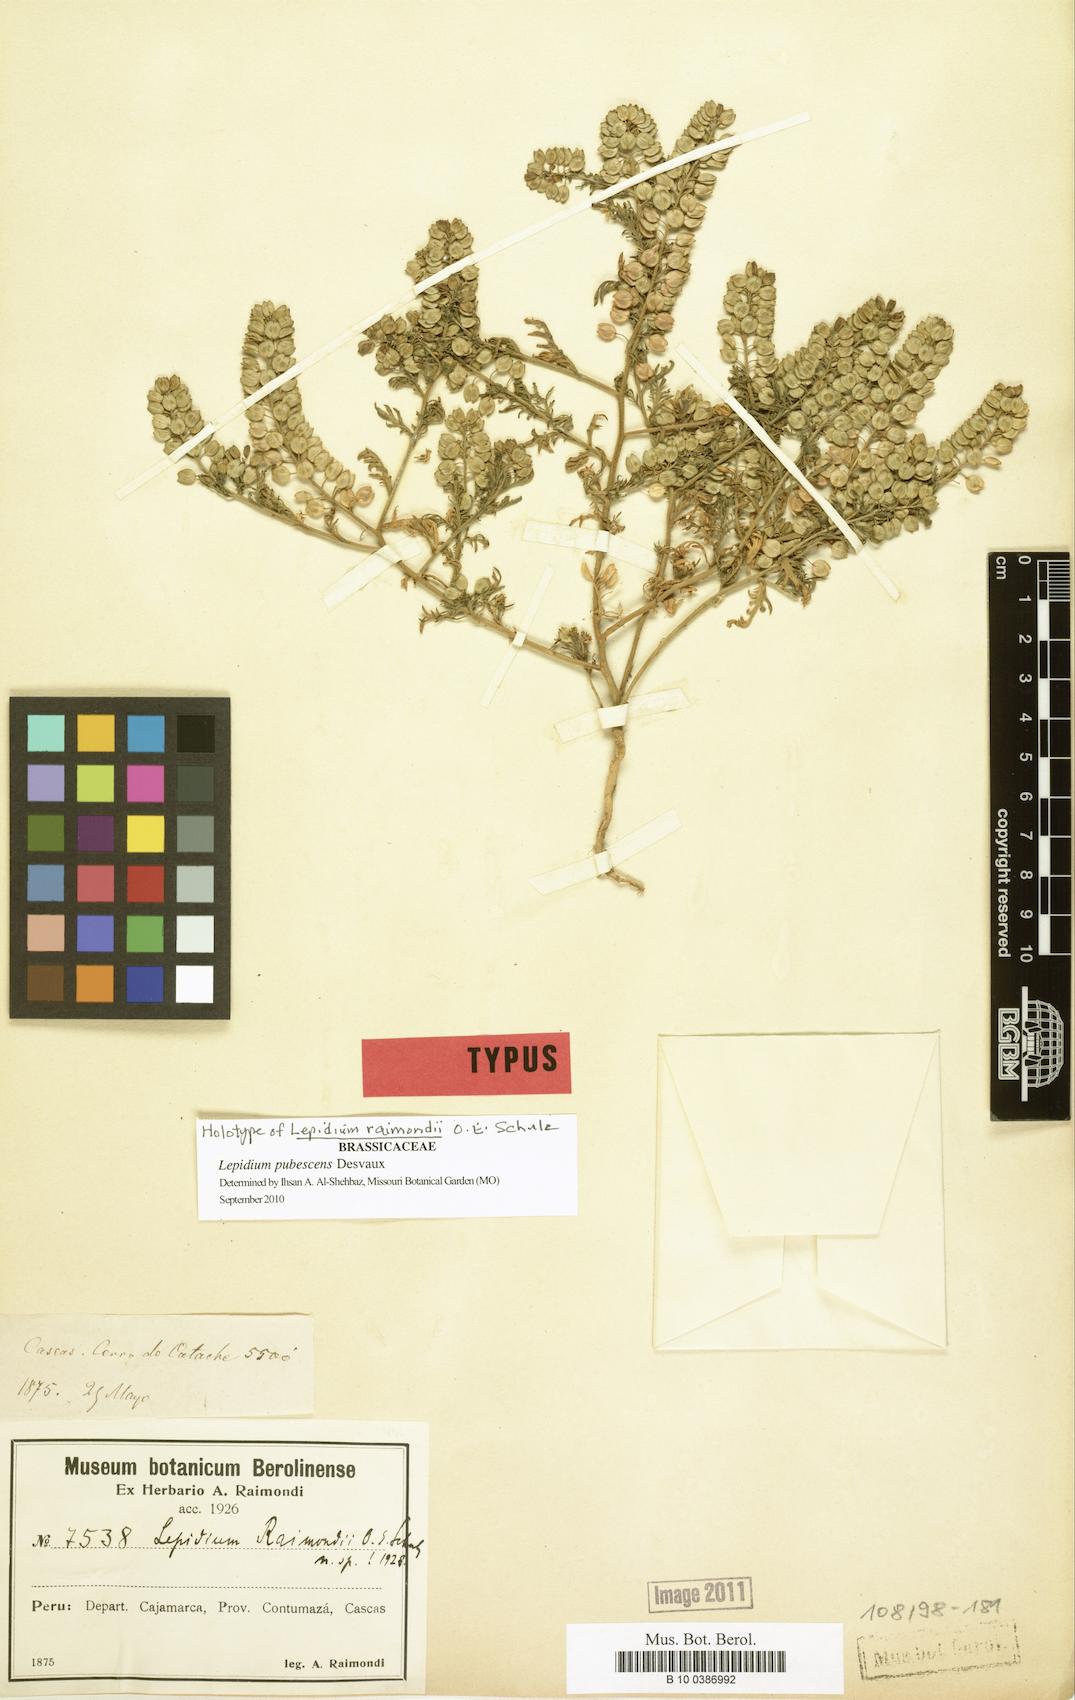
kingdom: Plantae
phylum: Tracheophyta
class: Magnoliopsida
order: Brassicales
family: Brassicaceae
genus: Lepidium
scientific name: Lepidium pubescens
